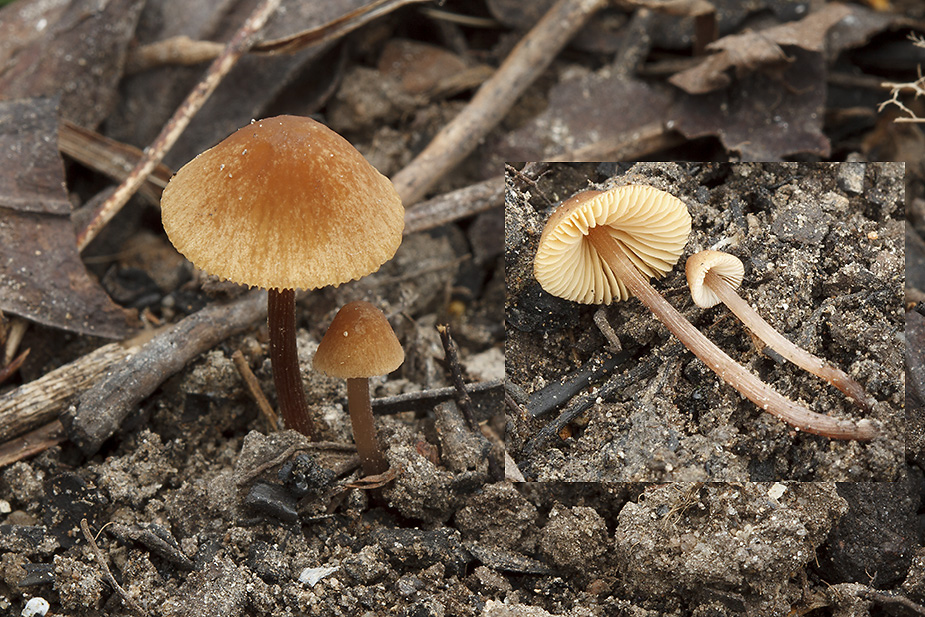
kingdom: Fungi
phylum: Basidiomycota
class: Agaricomycetes
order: Agaricales
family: Bolbitiaceae
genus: Conocybe
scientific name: Conocybe pallidospora
